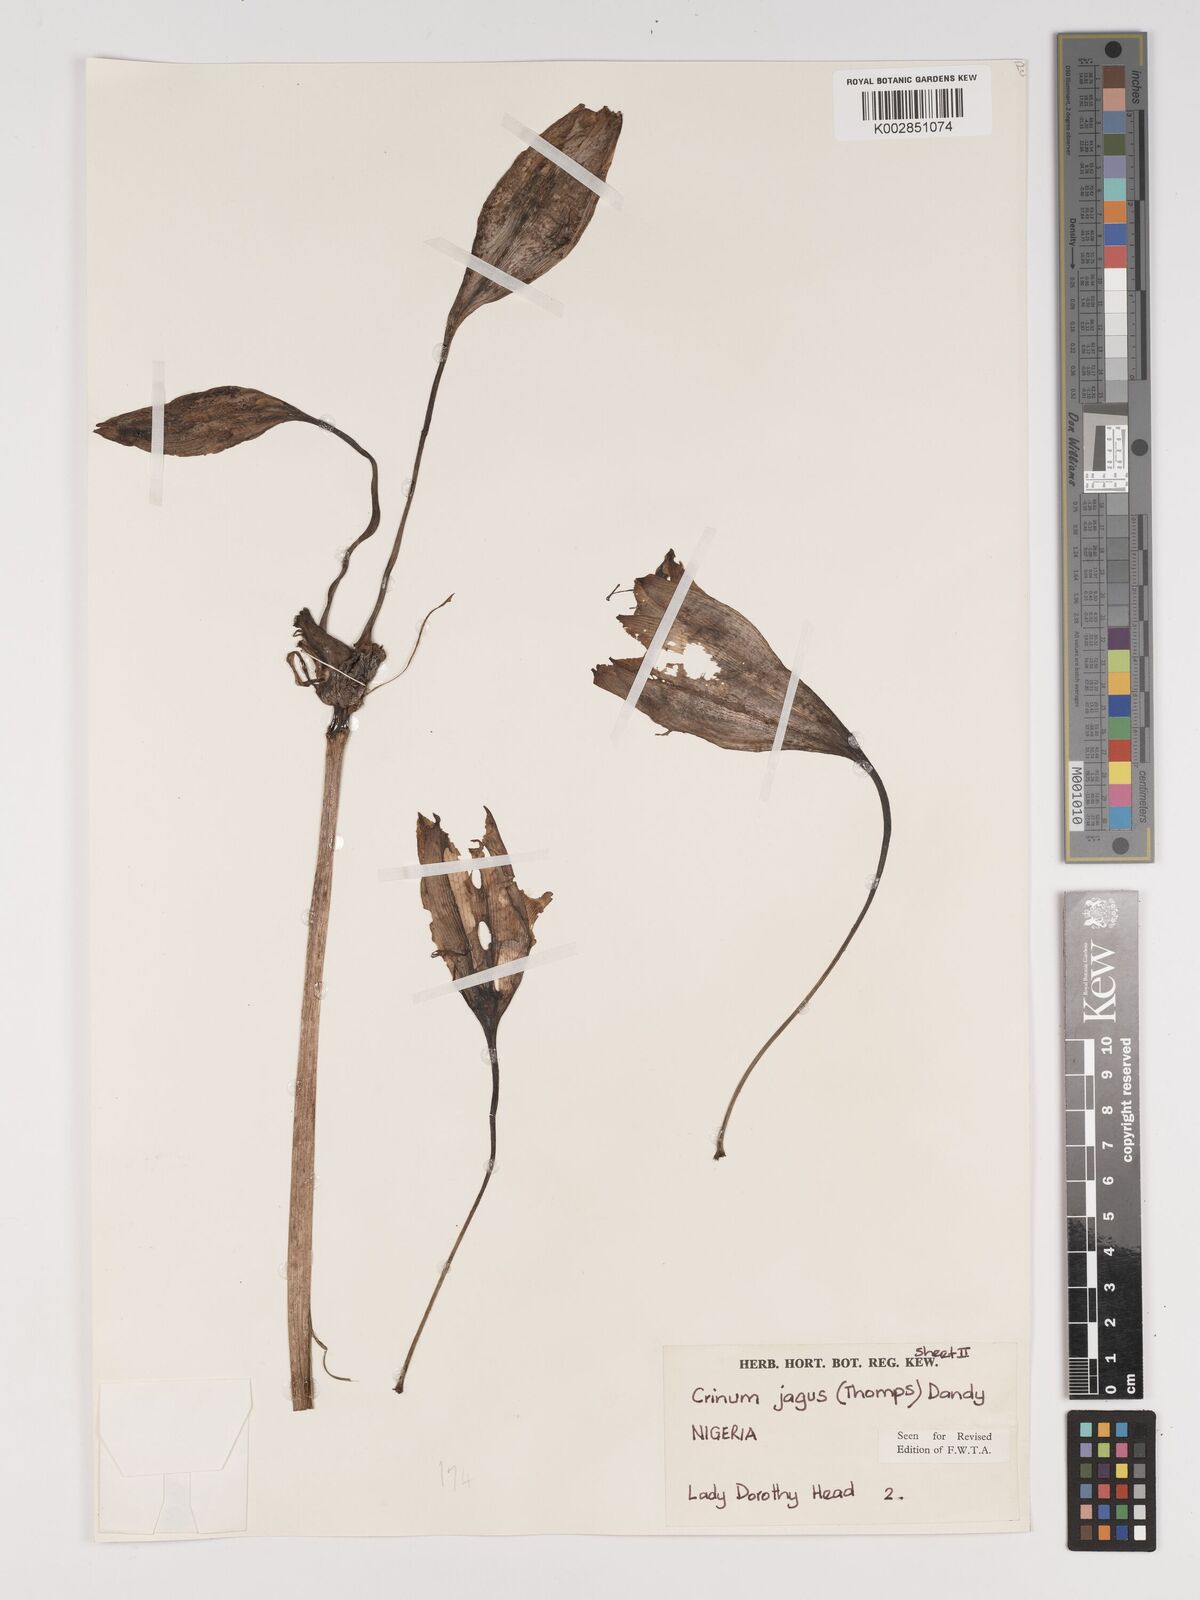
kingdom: Plantae
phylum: Tracheophyta
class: Liliopsida
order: Asparagales
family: Amaryllidaceae
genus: Crinum
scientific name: Crinum jagus
